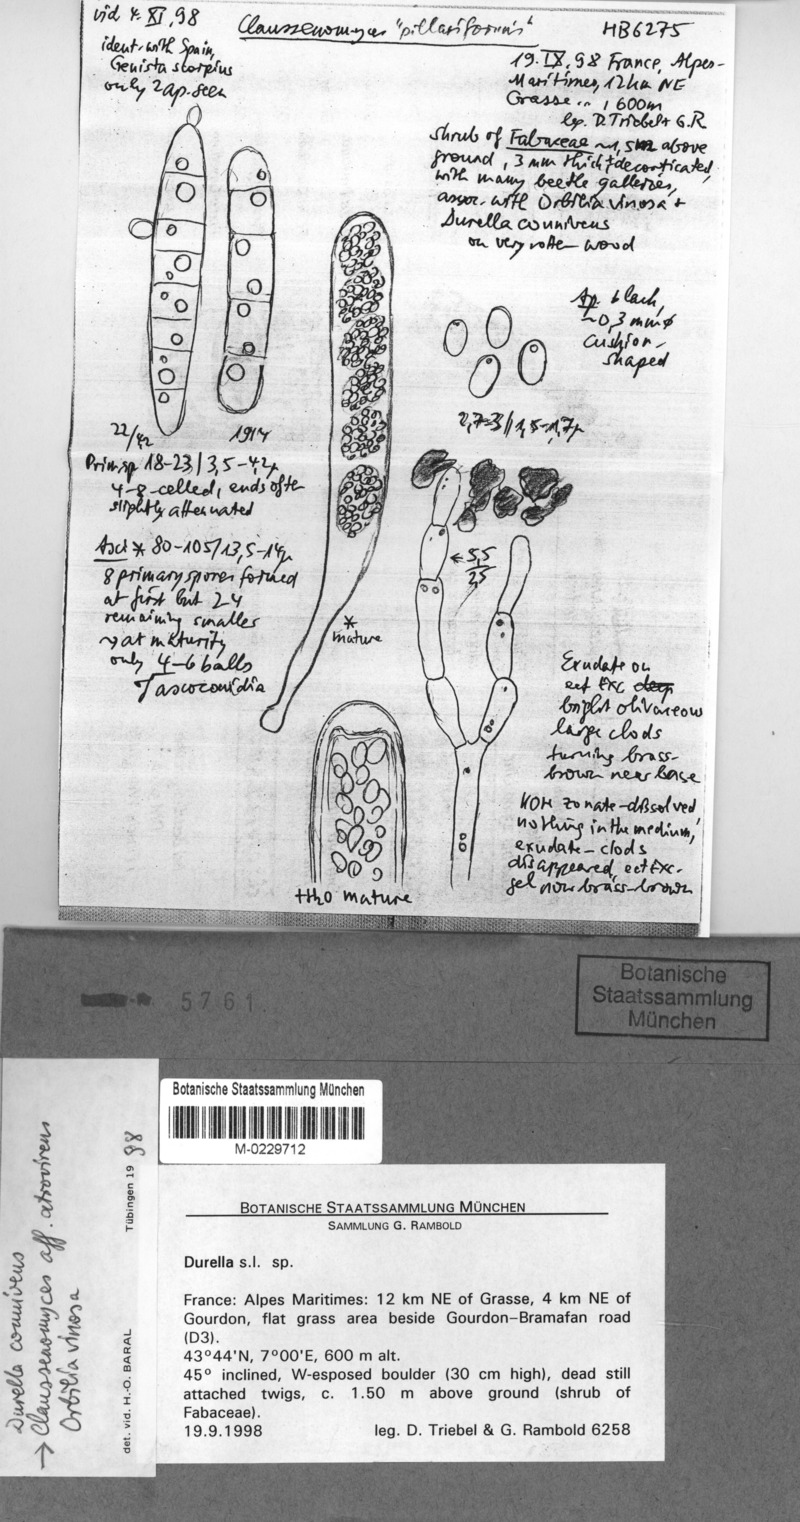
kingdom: Fungi
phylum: Ascomycota
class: Leotiomycetes
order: Leotiales
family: Tympanidaceae
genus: Vexillomyces
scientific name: Vexillomyces atrovirens
